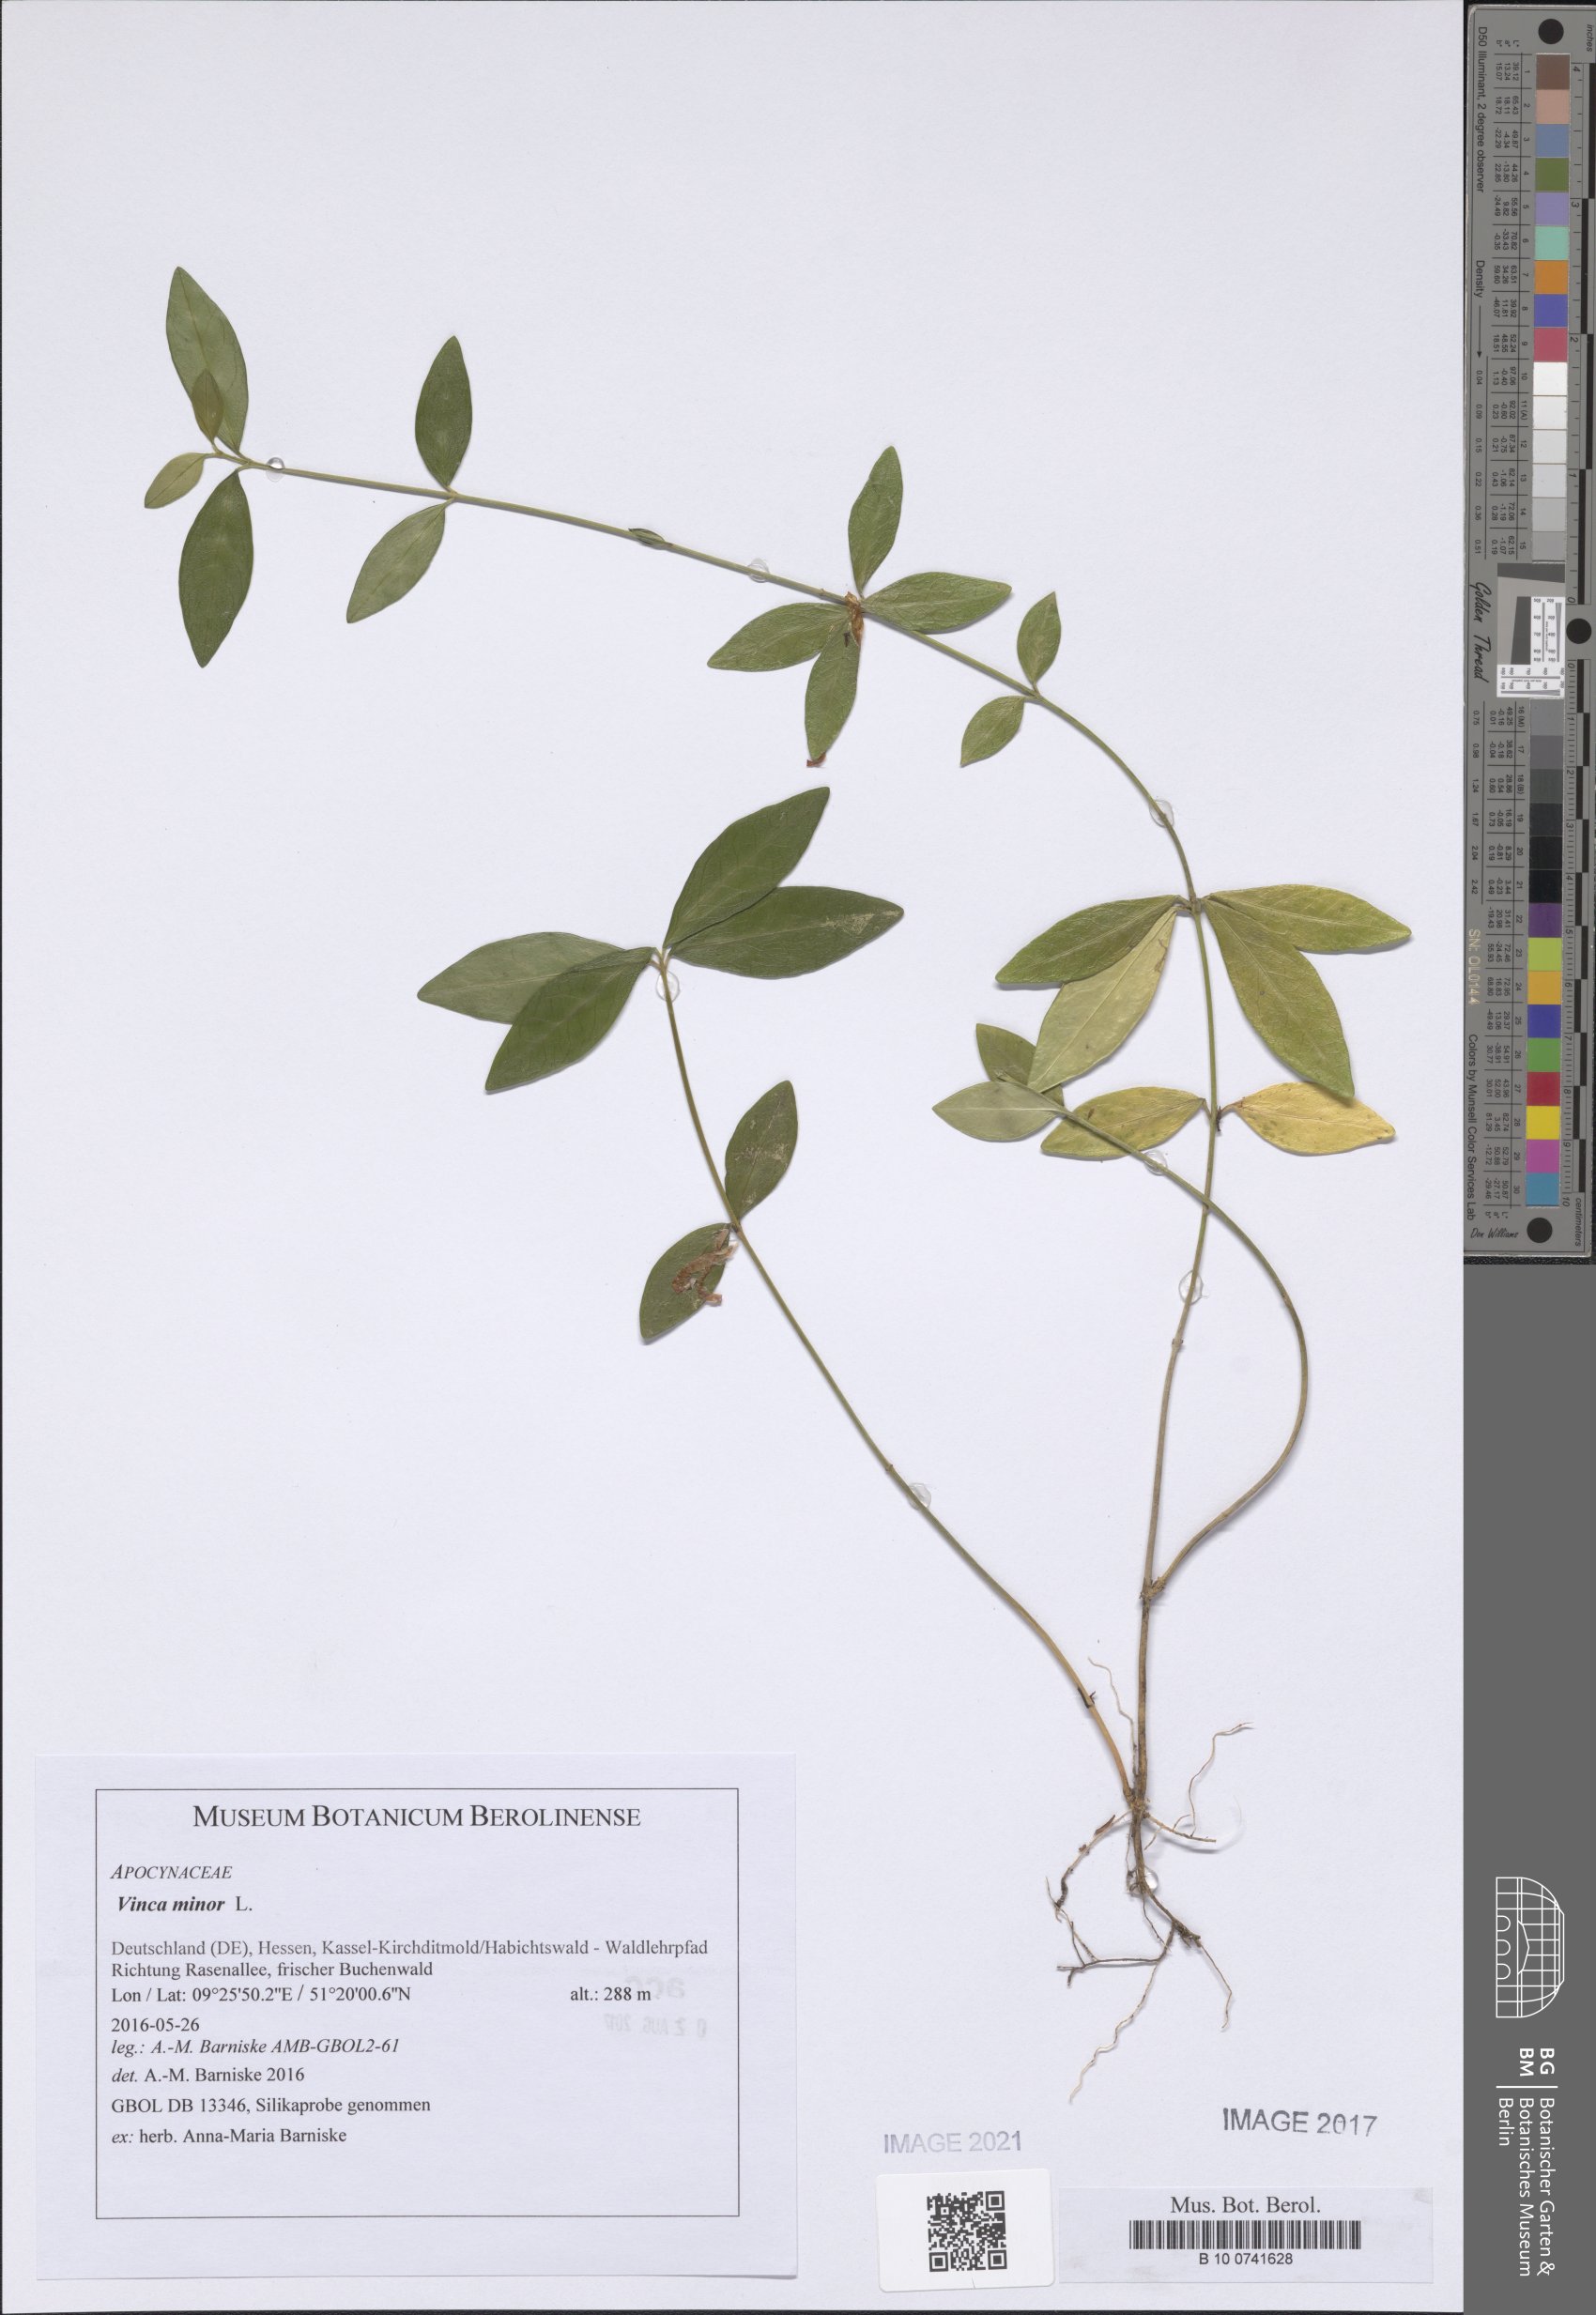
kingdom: Plantae
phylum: Tracheophyta
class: Magnoliopsida
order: Gentianales
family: Apocynaceae
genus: Vinca
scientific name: Vinca minor
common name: Lesser periwinkle
